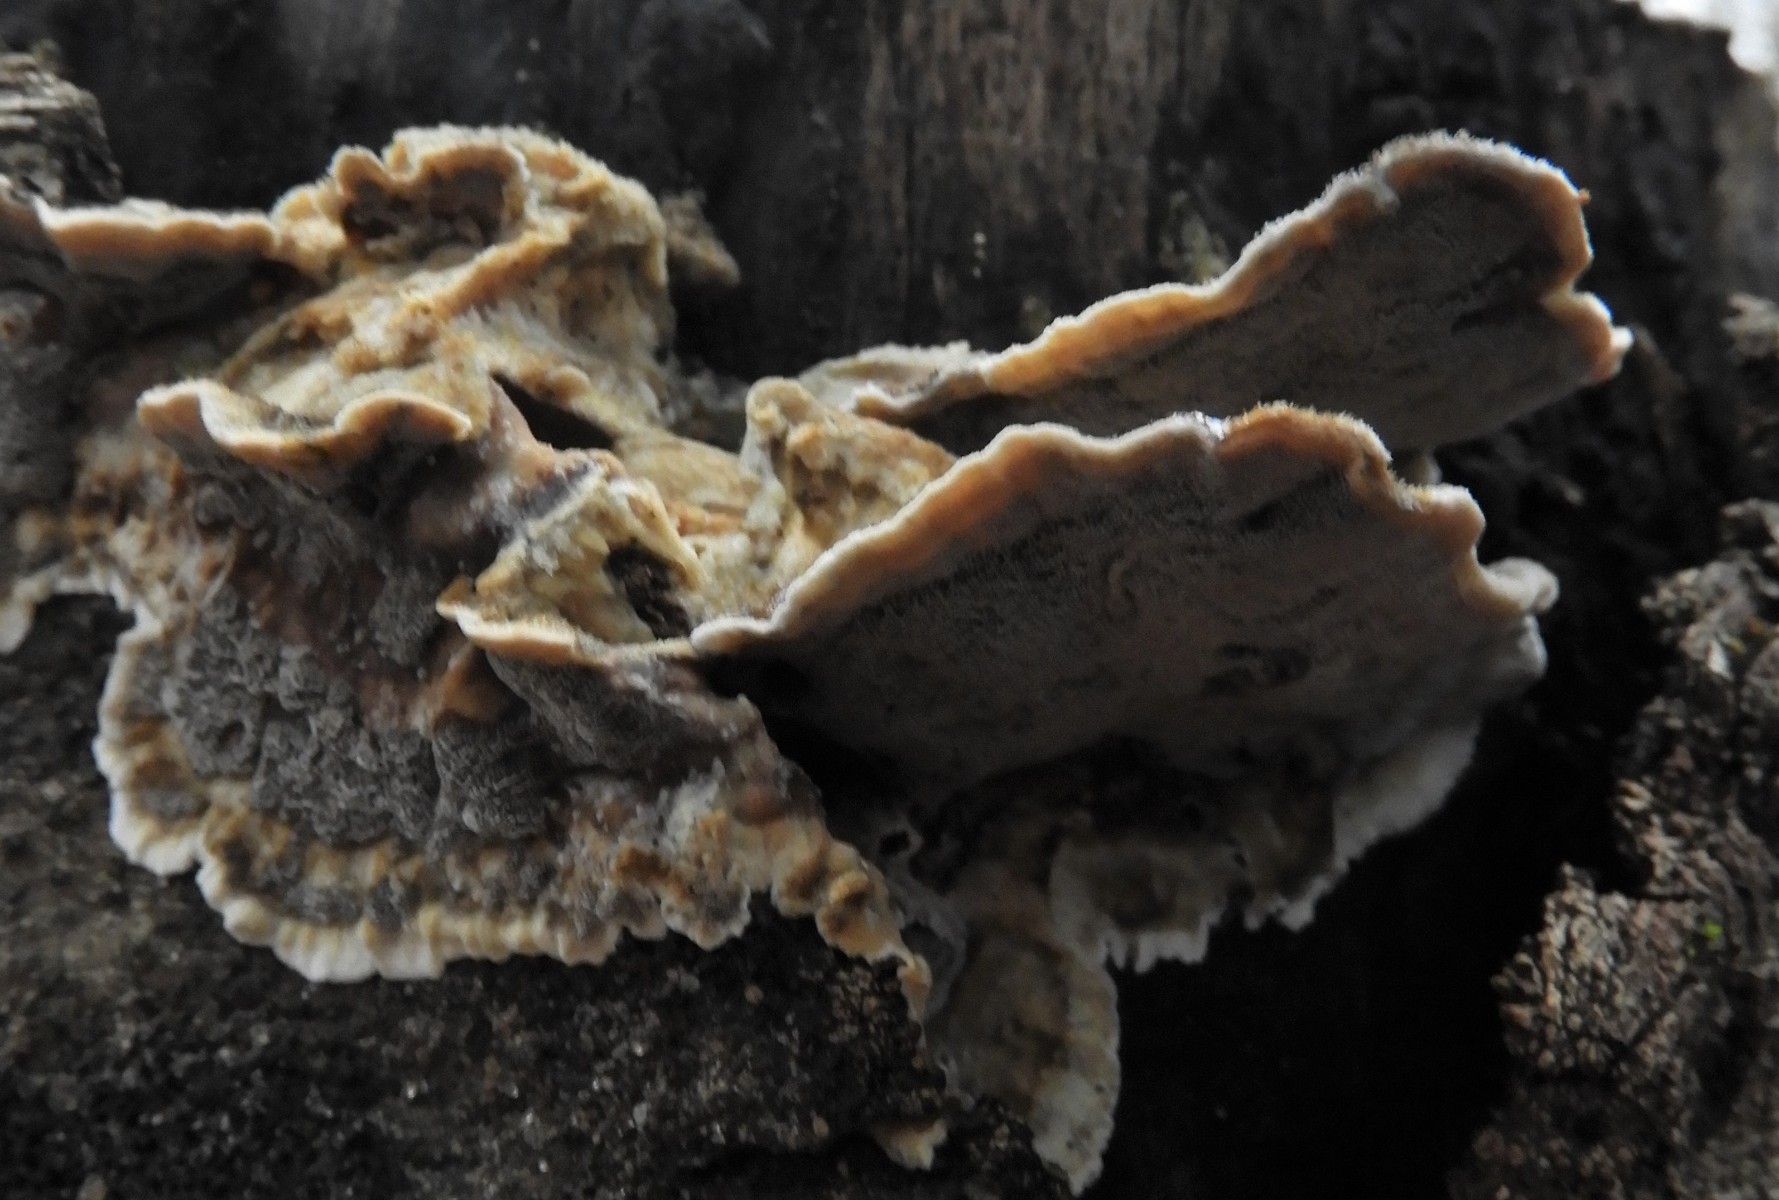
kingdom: Fungi
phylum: Basidiomycota
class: Agaricomycetes
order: Polyporales
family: Phanerochaetaceae
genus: Bjerkandera
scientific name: Bjerkandera adusta
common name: sveden sodporesvamp
